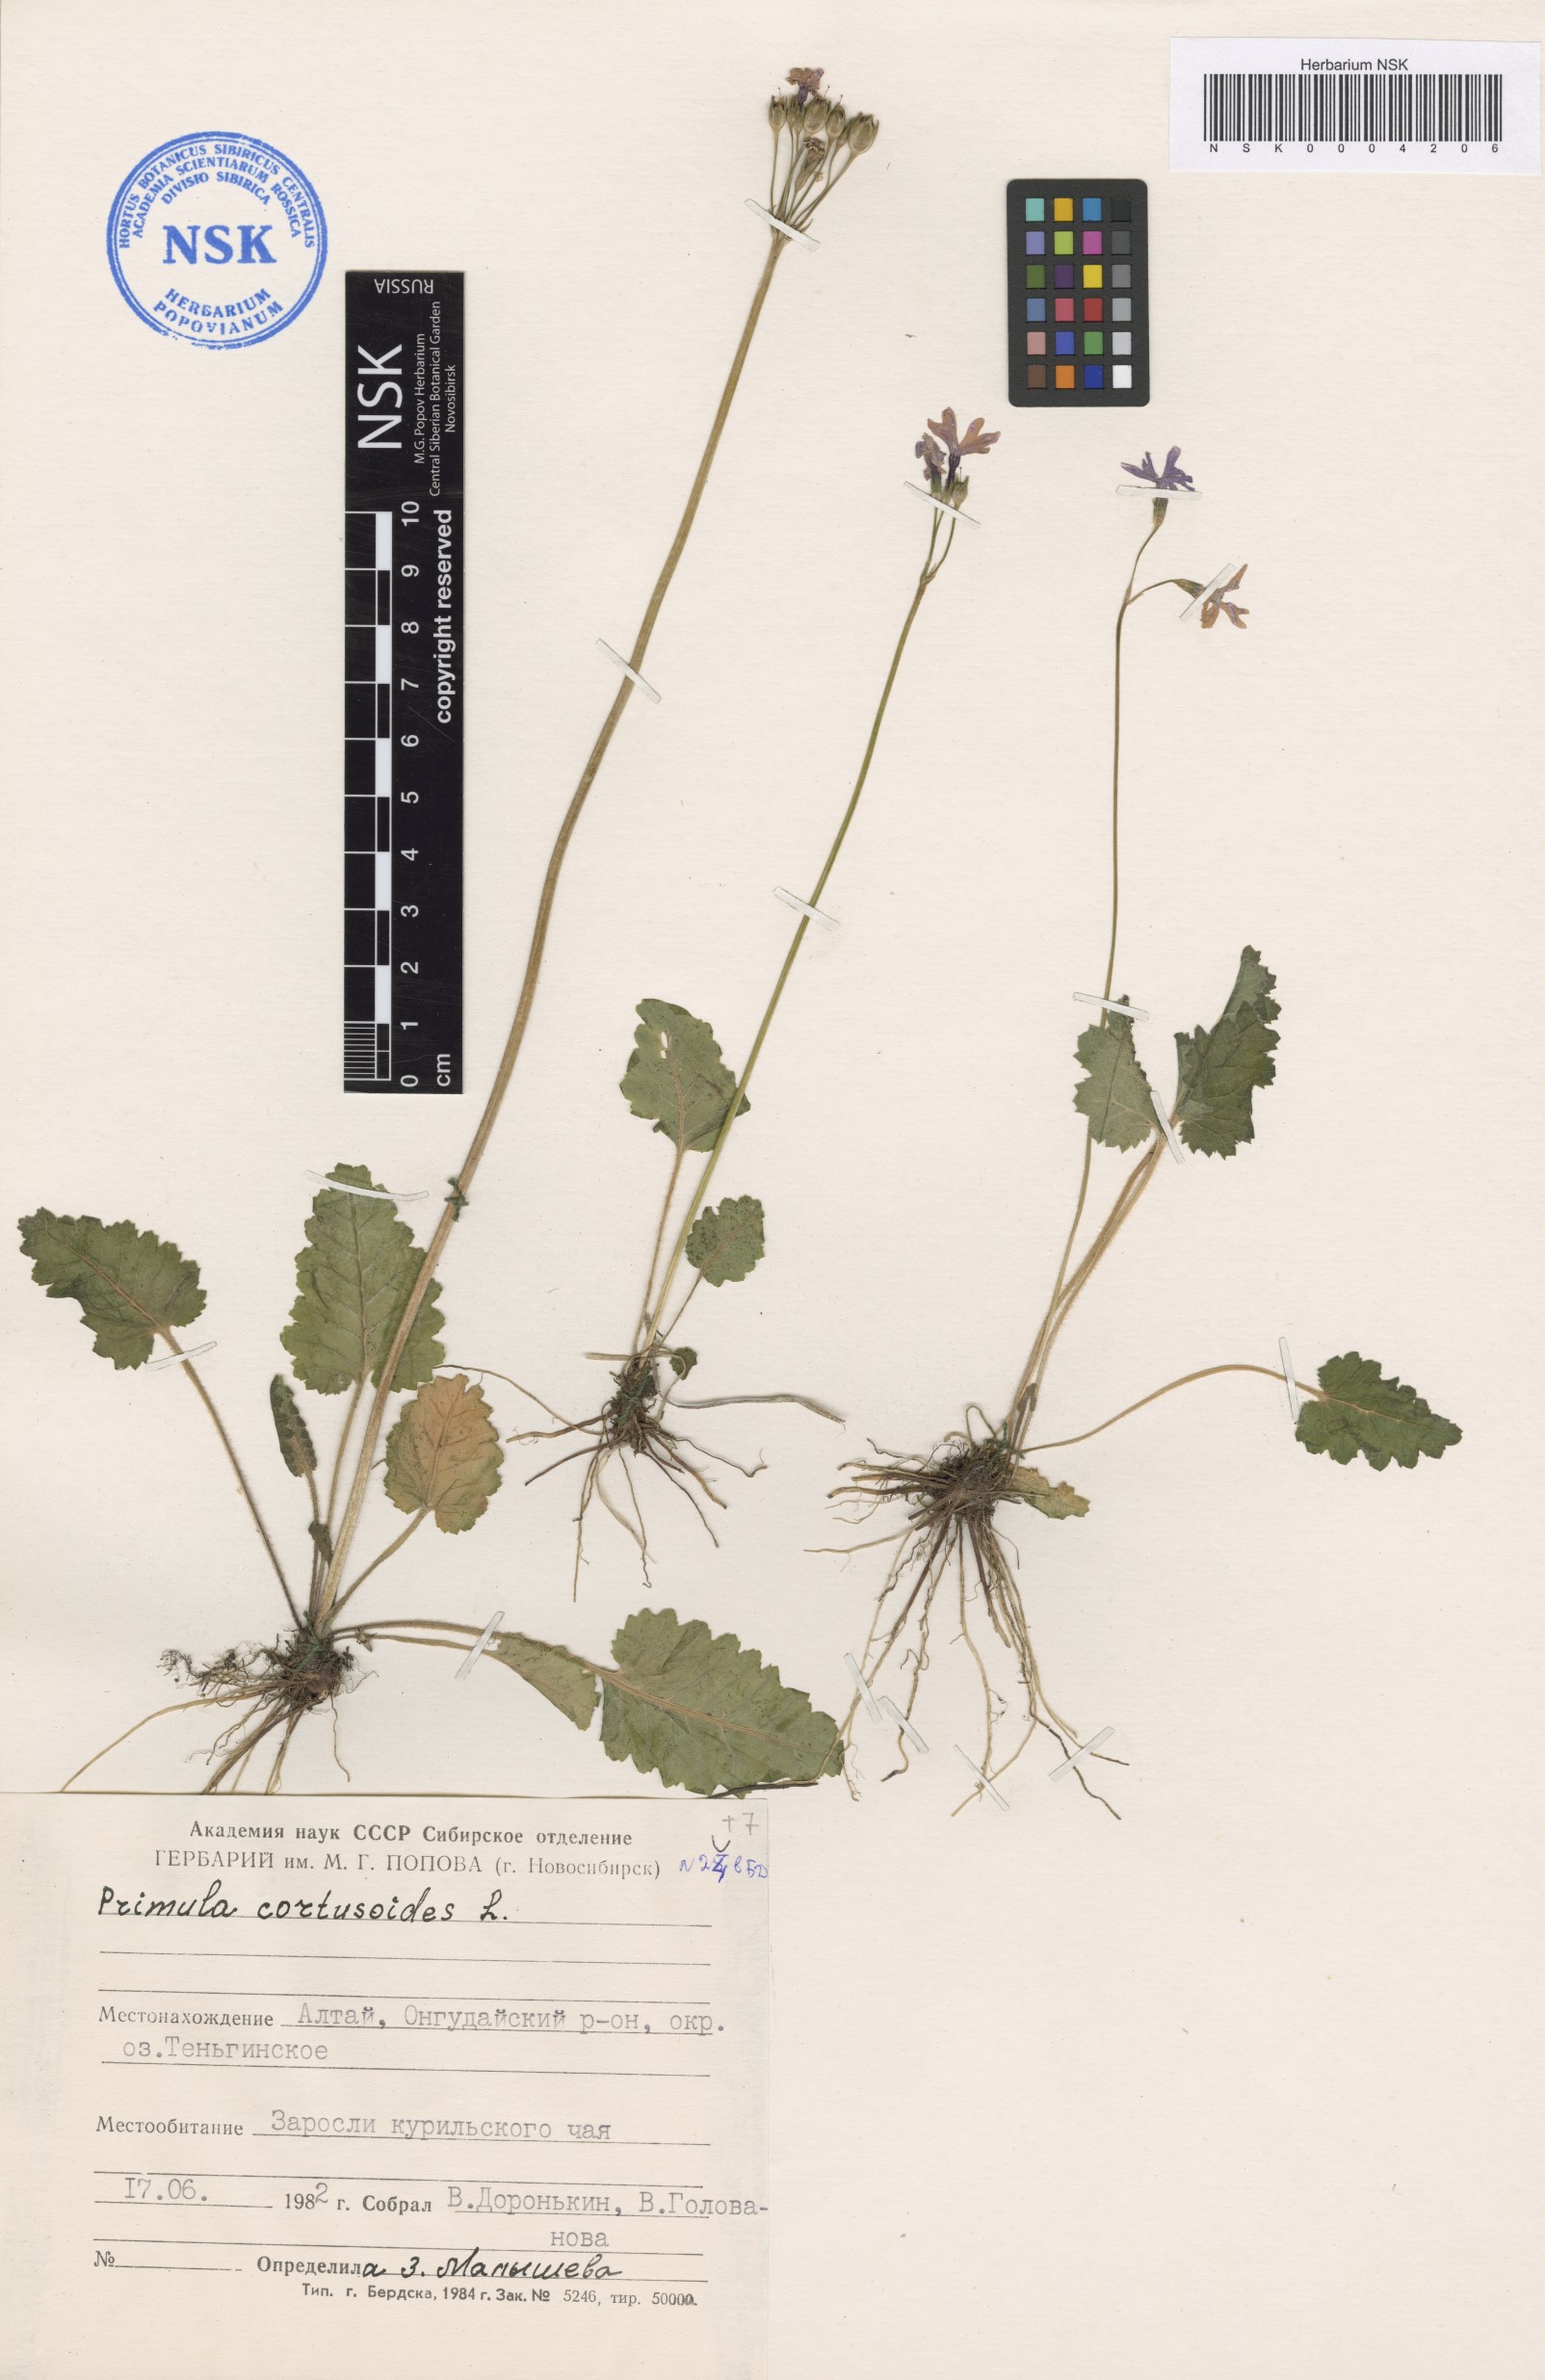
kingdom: Plantae
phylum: Tracheophyta
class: Magnoliopsida
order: Ericales
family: Primulaceae
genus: Primula
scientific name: Primula cortusoides
